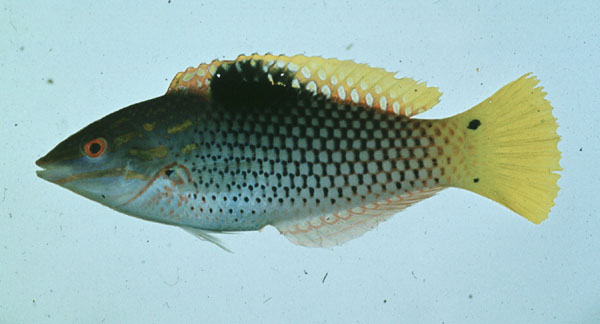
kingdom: Animalia
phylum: Chordata
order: Perciformes
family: Labridae
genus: Halichoeres
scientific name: Halichoeres hortulanus
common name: Checkerboard wrasse
